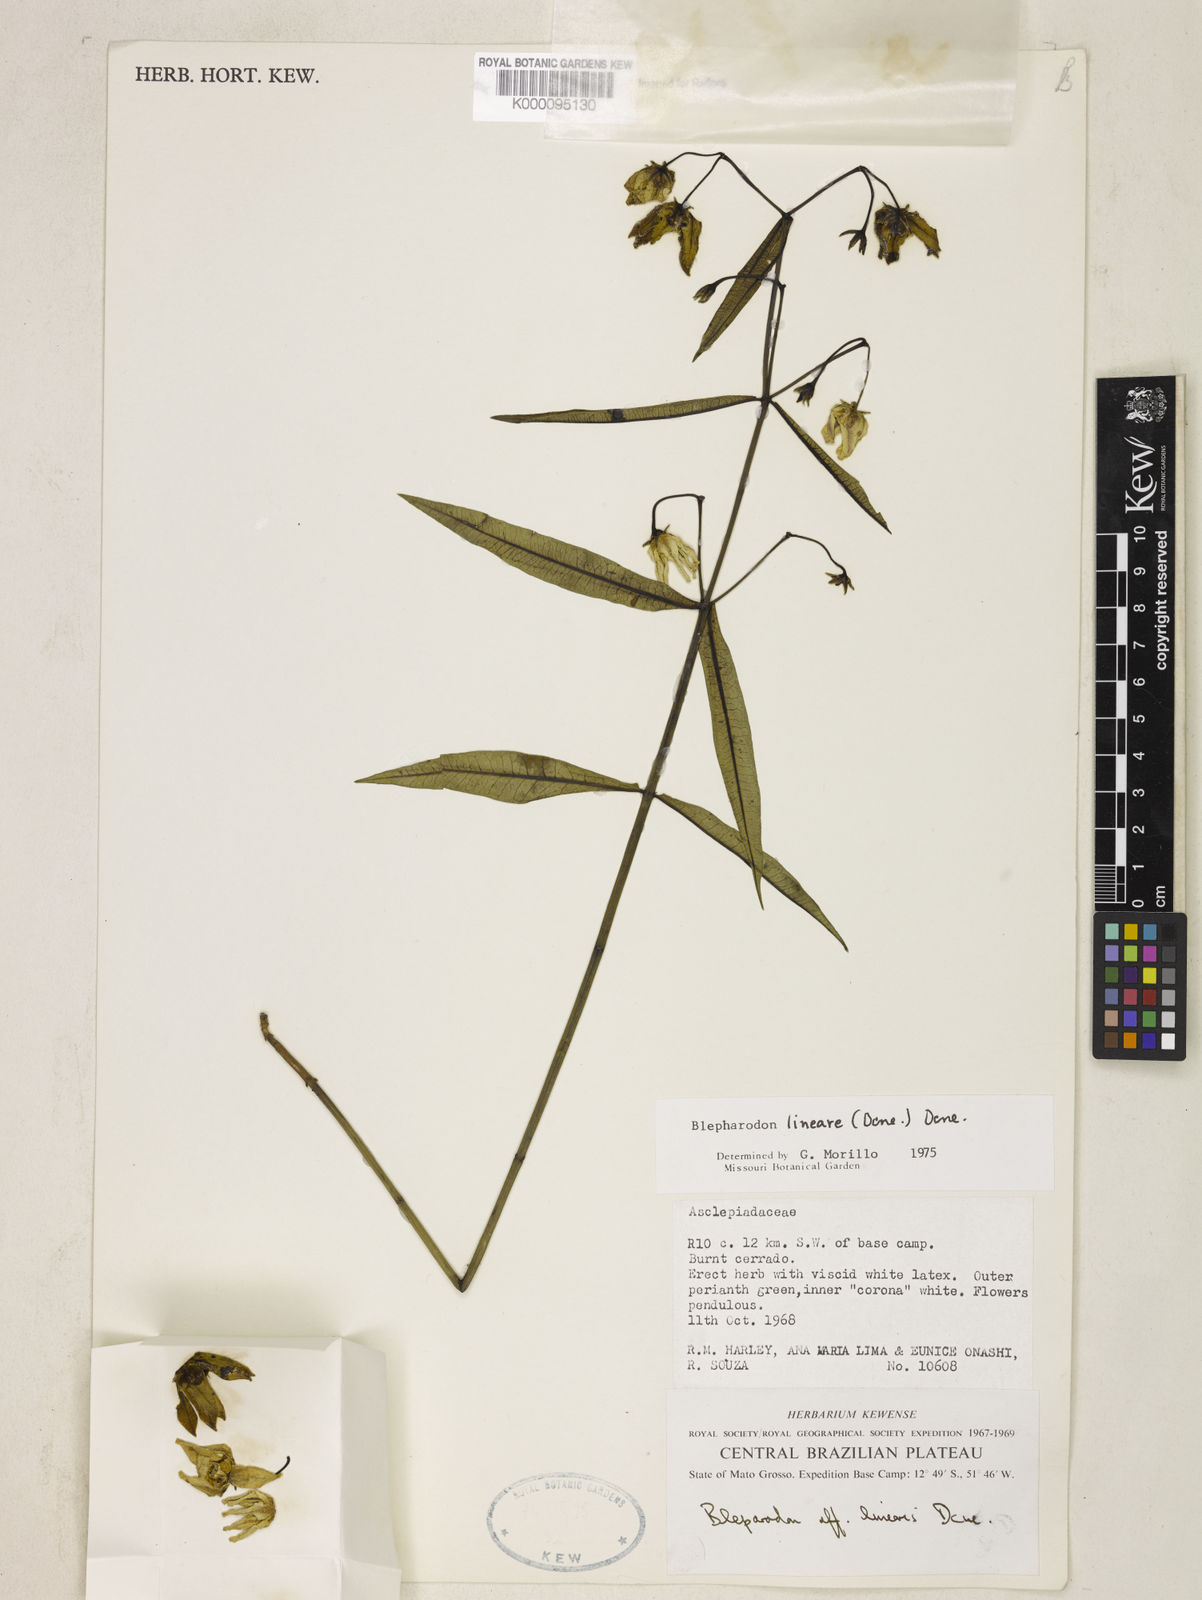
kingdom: Plantae
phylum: Tracheophyta
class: Magnoliopsida
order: Gentianales
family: Apocynaceae
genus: Blepharodon
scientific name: Blepharodon lineare
